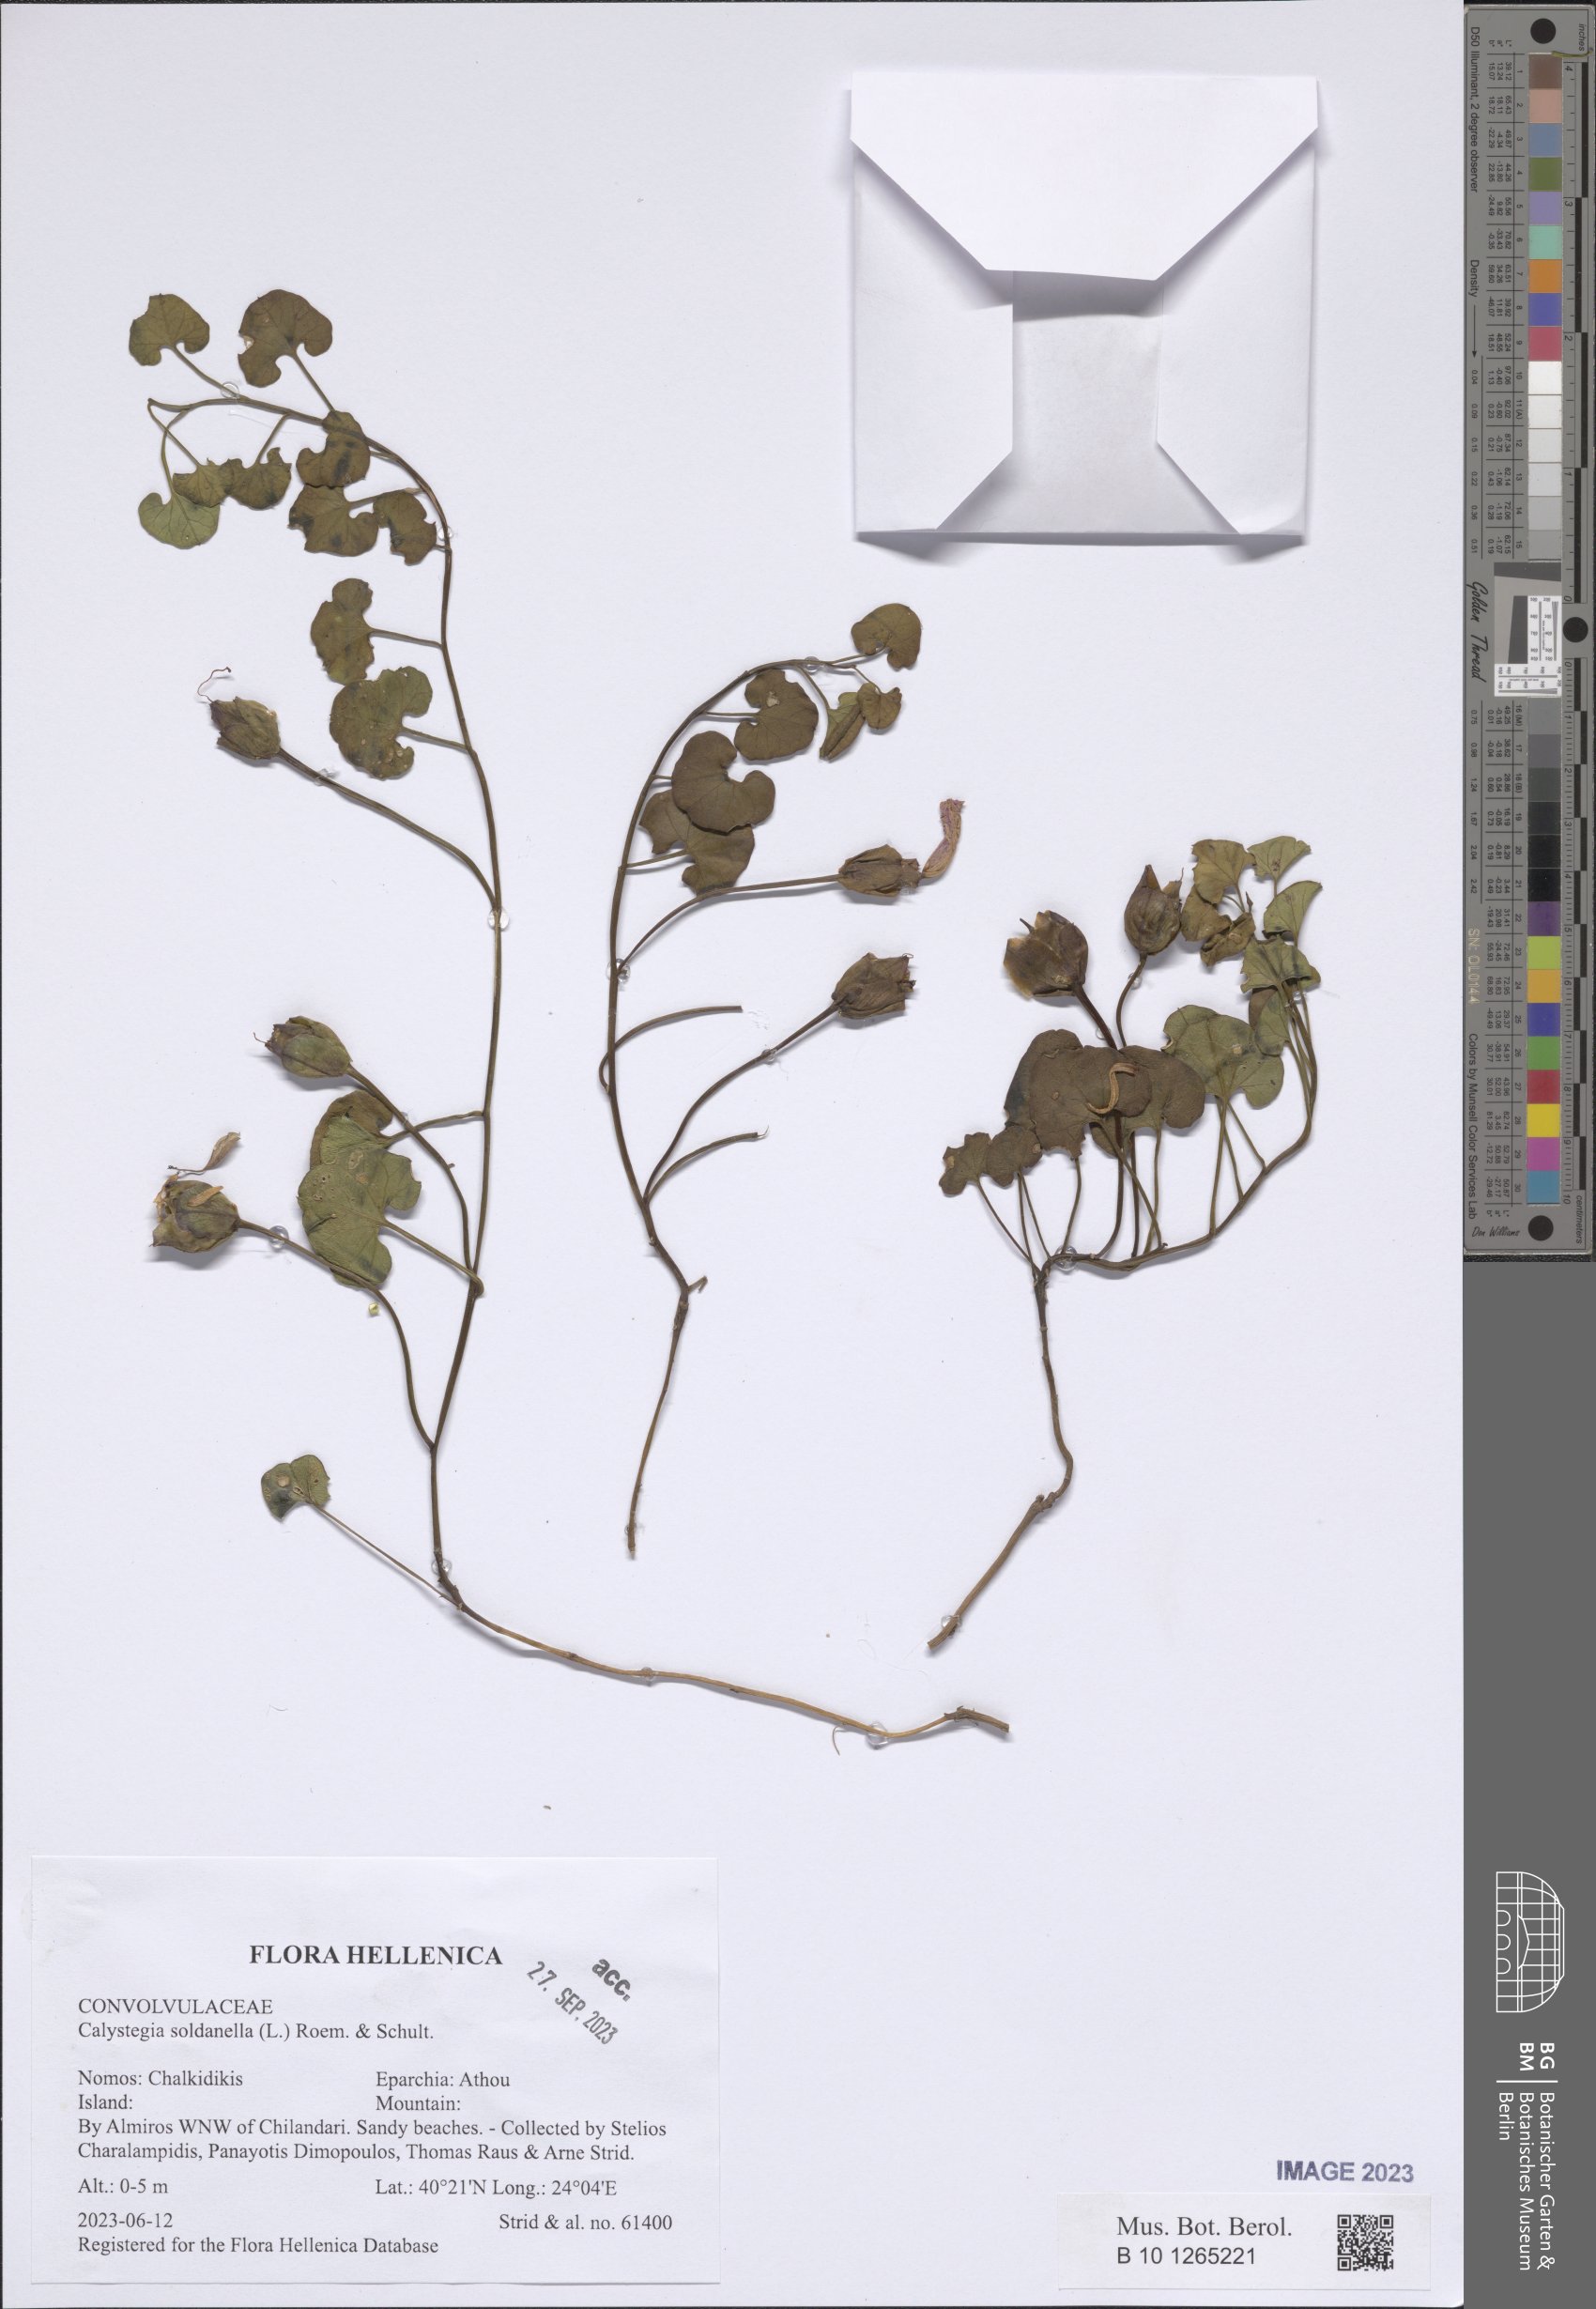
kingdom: Plantae
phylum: Tracheophyta
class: Magnoliopsida
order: Solanales
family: Convolvulaceae
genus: Calystegia
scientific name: Calystegia soldanella
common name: Sea bindweed
